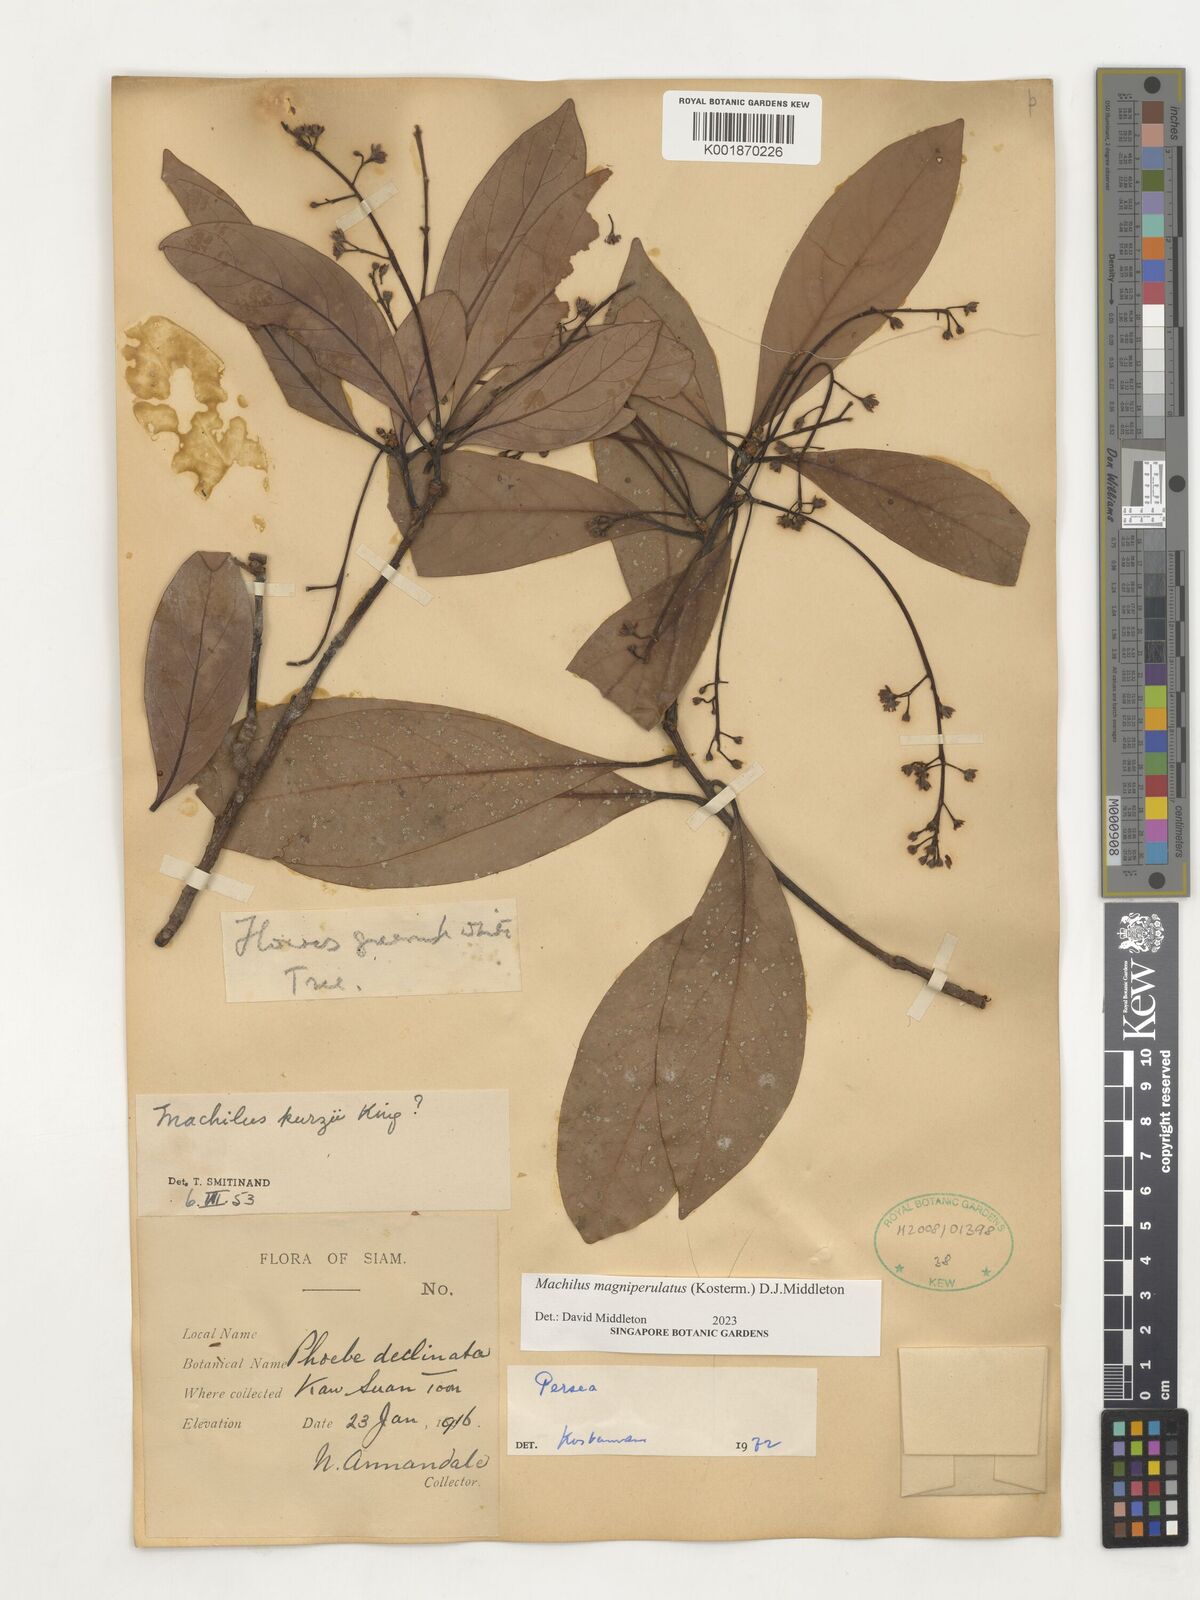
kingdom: Plantae
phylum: Tracheophyta
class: Magnoliopsida
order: Laurales
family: Lauraceae
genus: Machilus
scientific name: Machilus
